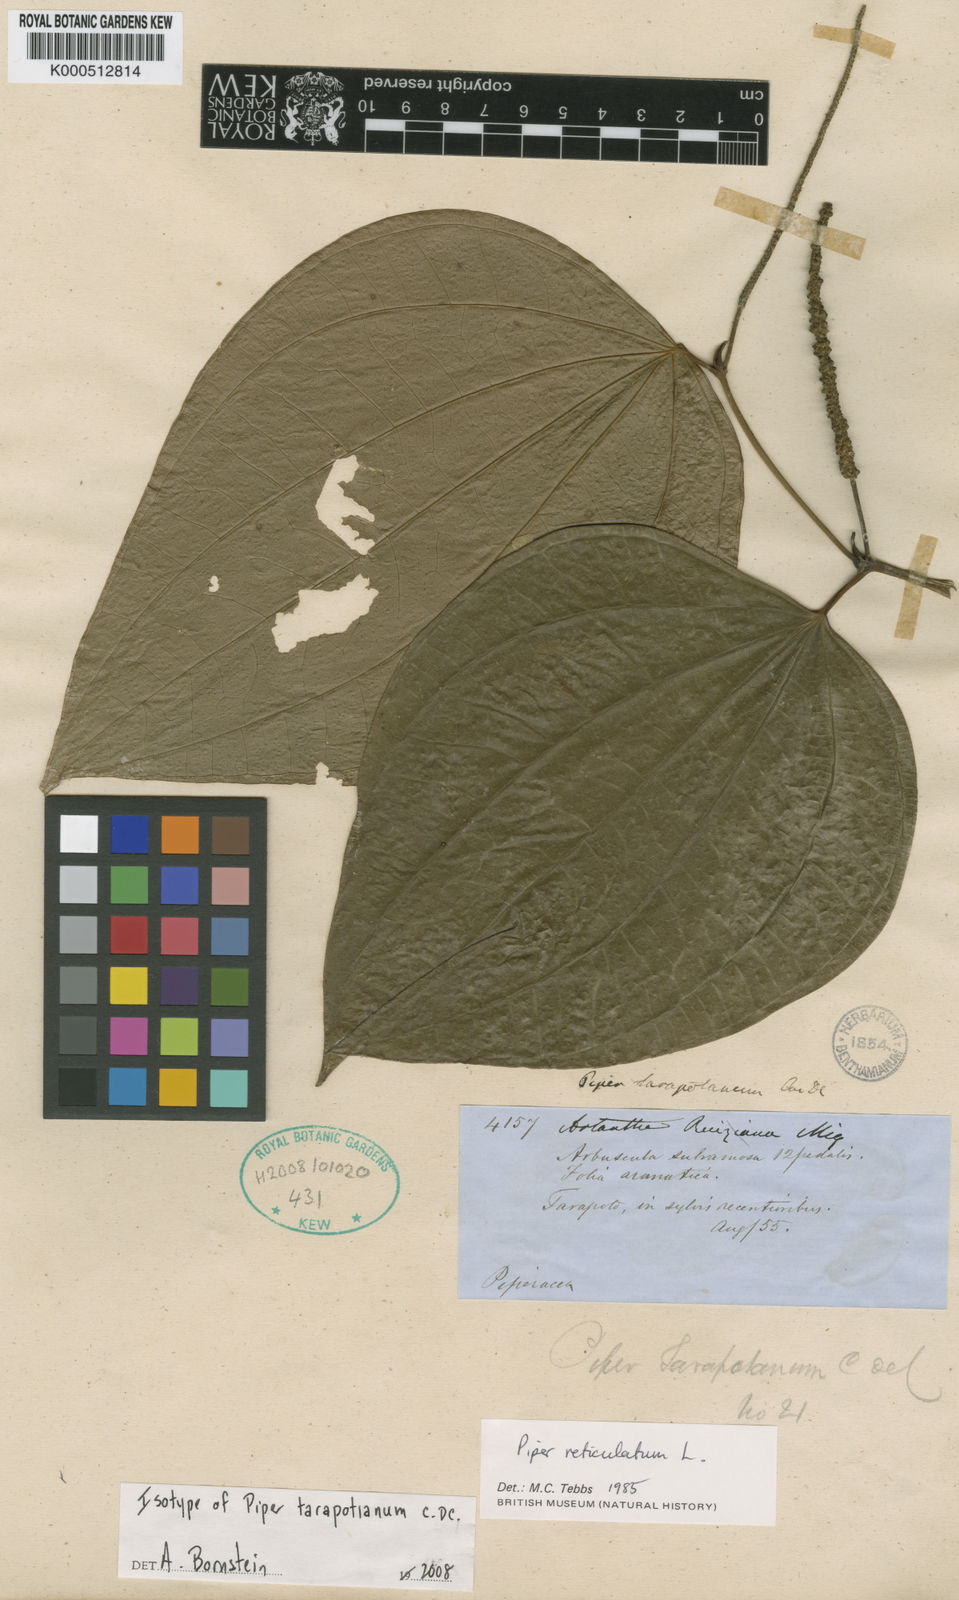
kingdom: Plantae
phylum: Tracheophyta
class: Magnoliopsida
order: Piperales
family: Piperaceae
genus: Piper
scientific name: Piper reticulatum
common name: Wild cane
